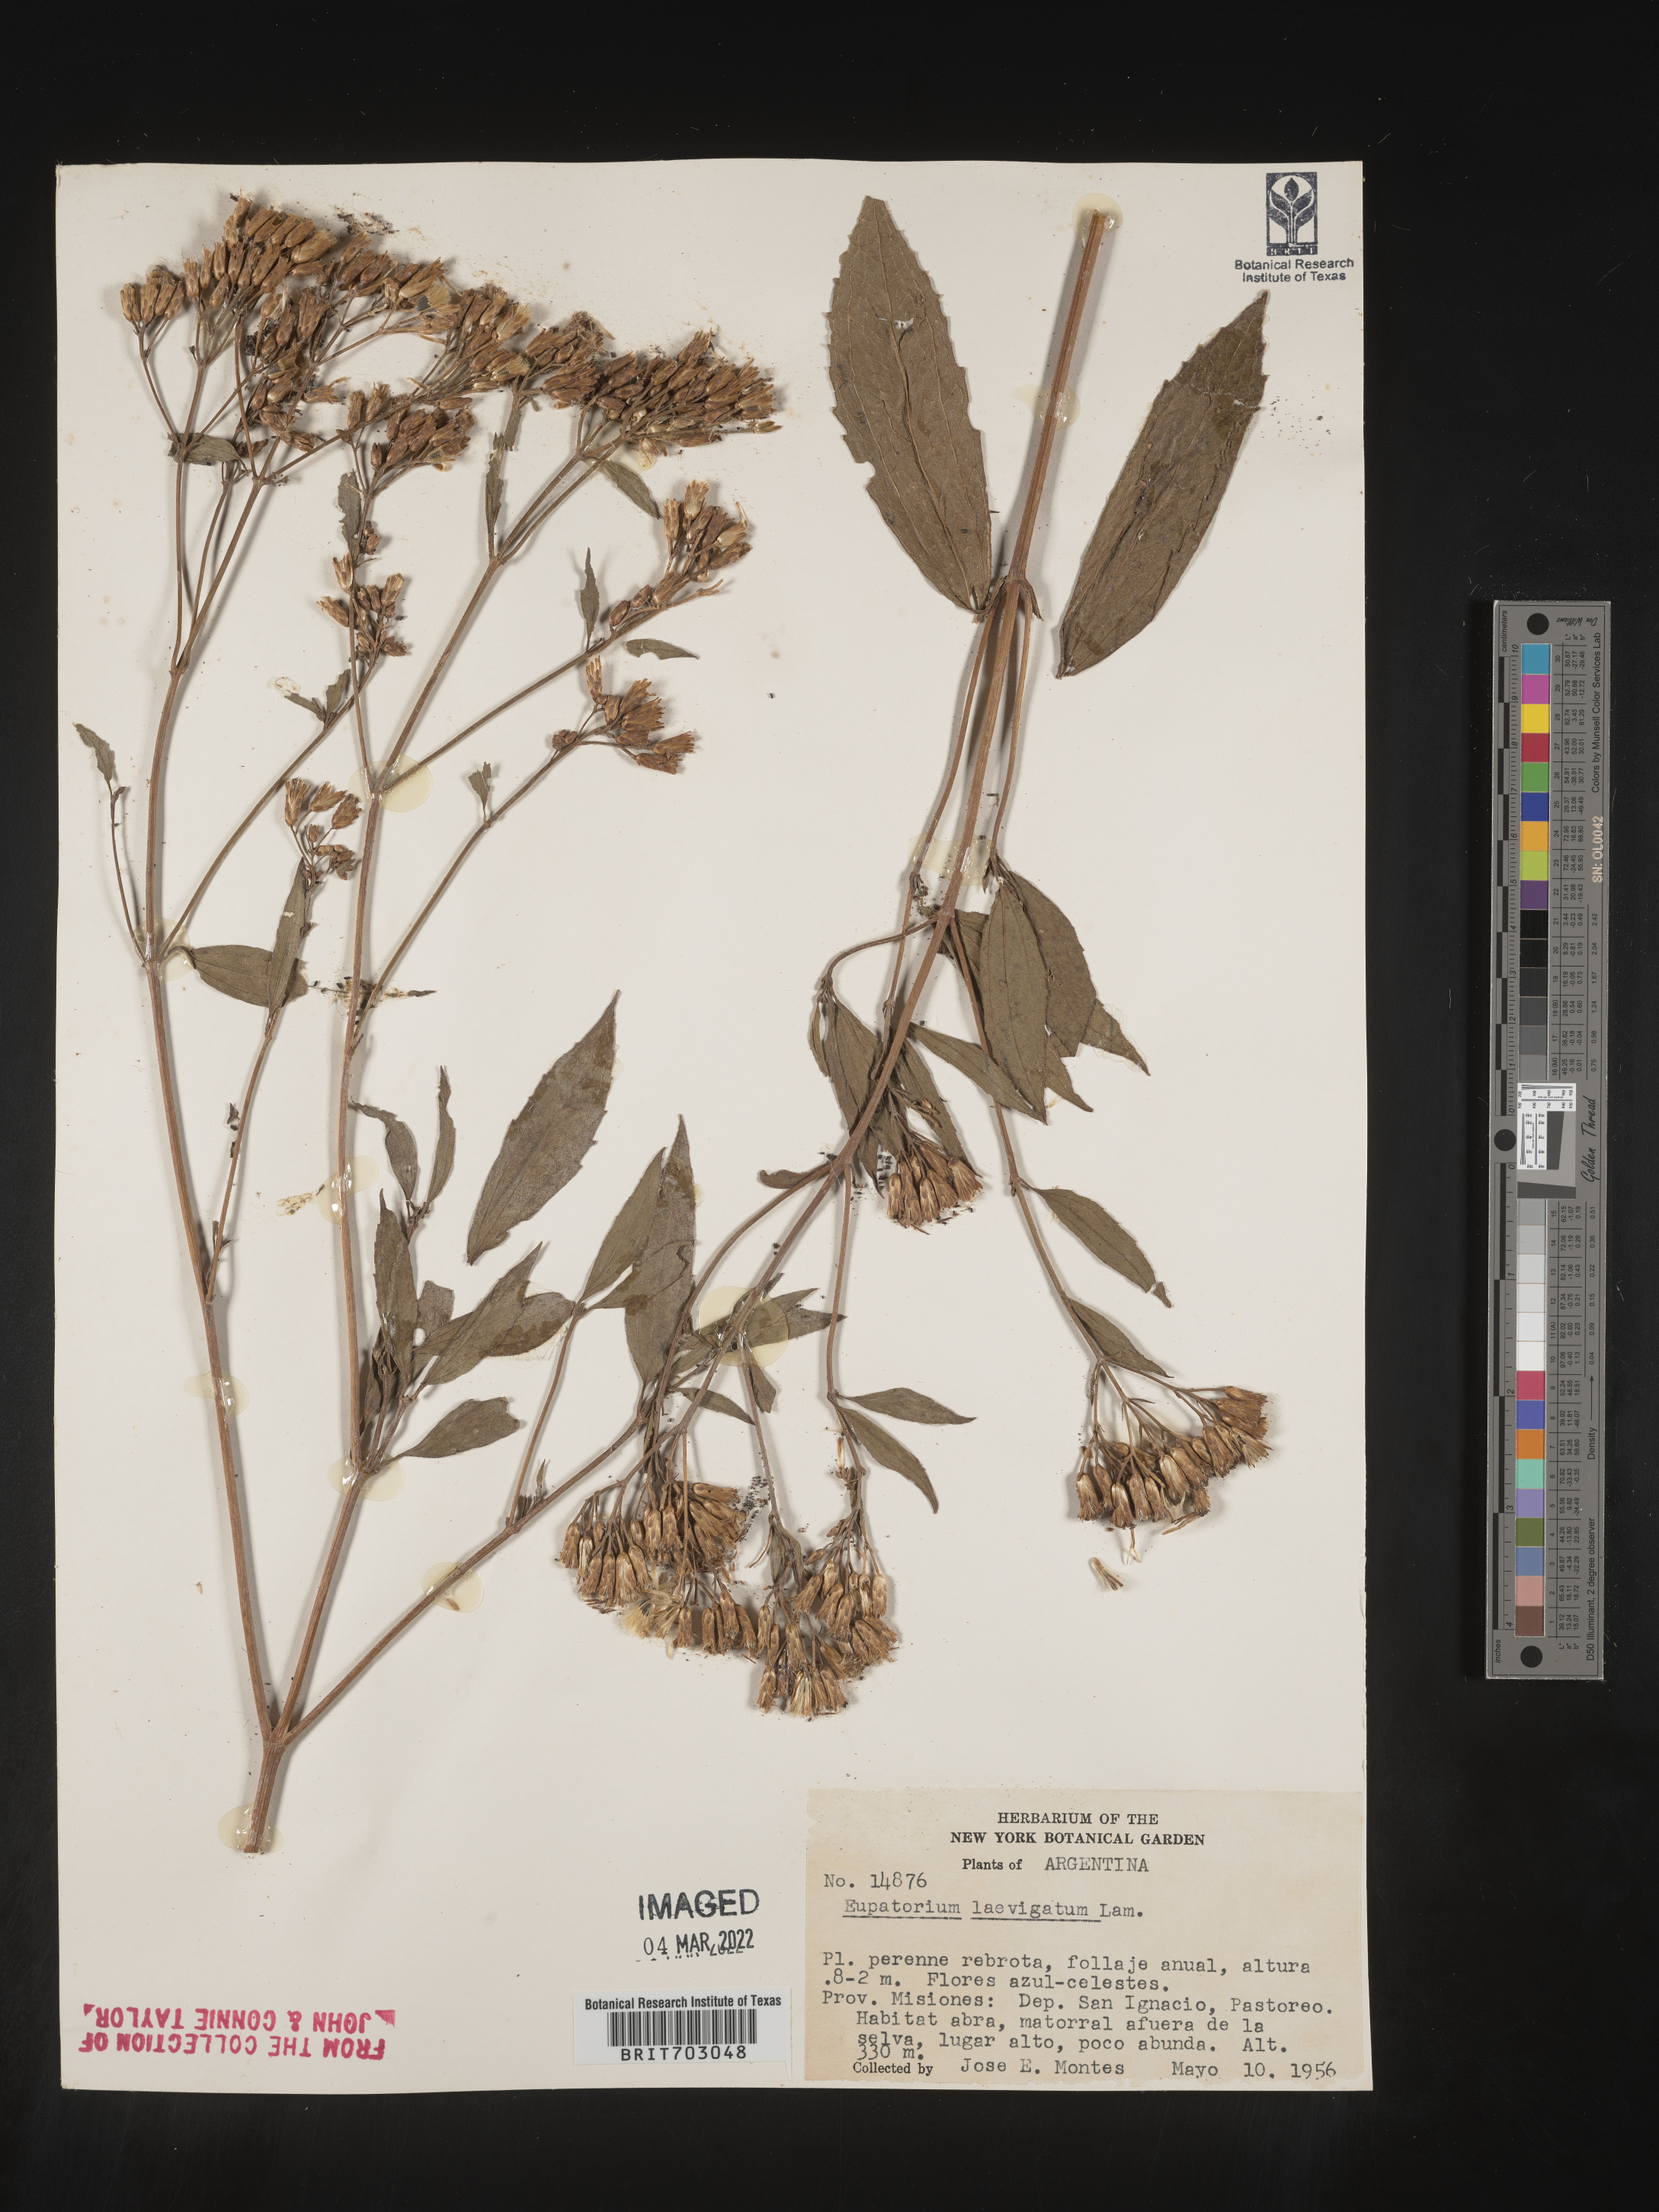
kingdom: Plantae
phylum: Tracheophyta
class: Magnoliopsida
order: Asterales
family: Asteraceae
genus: Eupatorium
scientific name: Eupatorium
